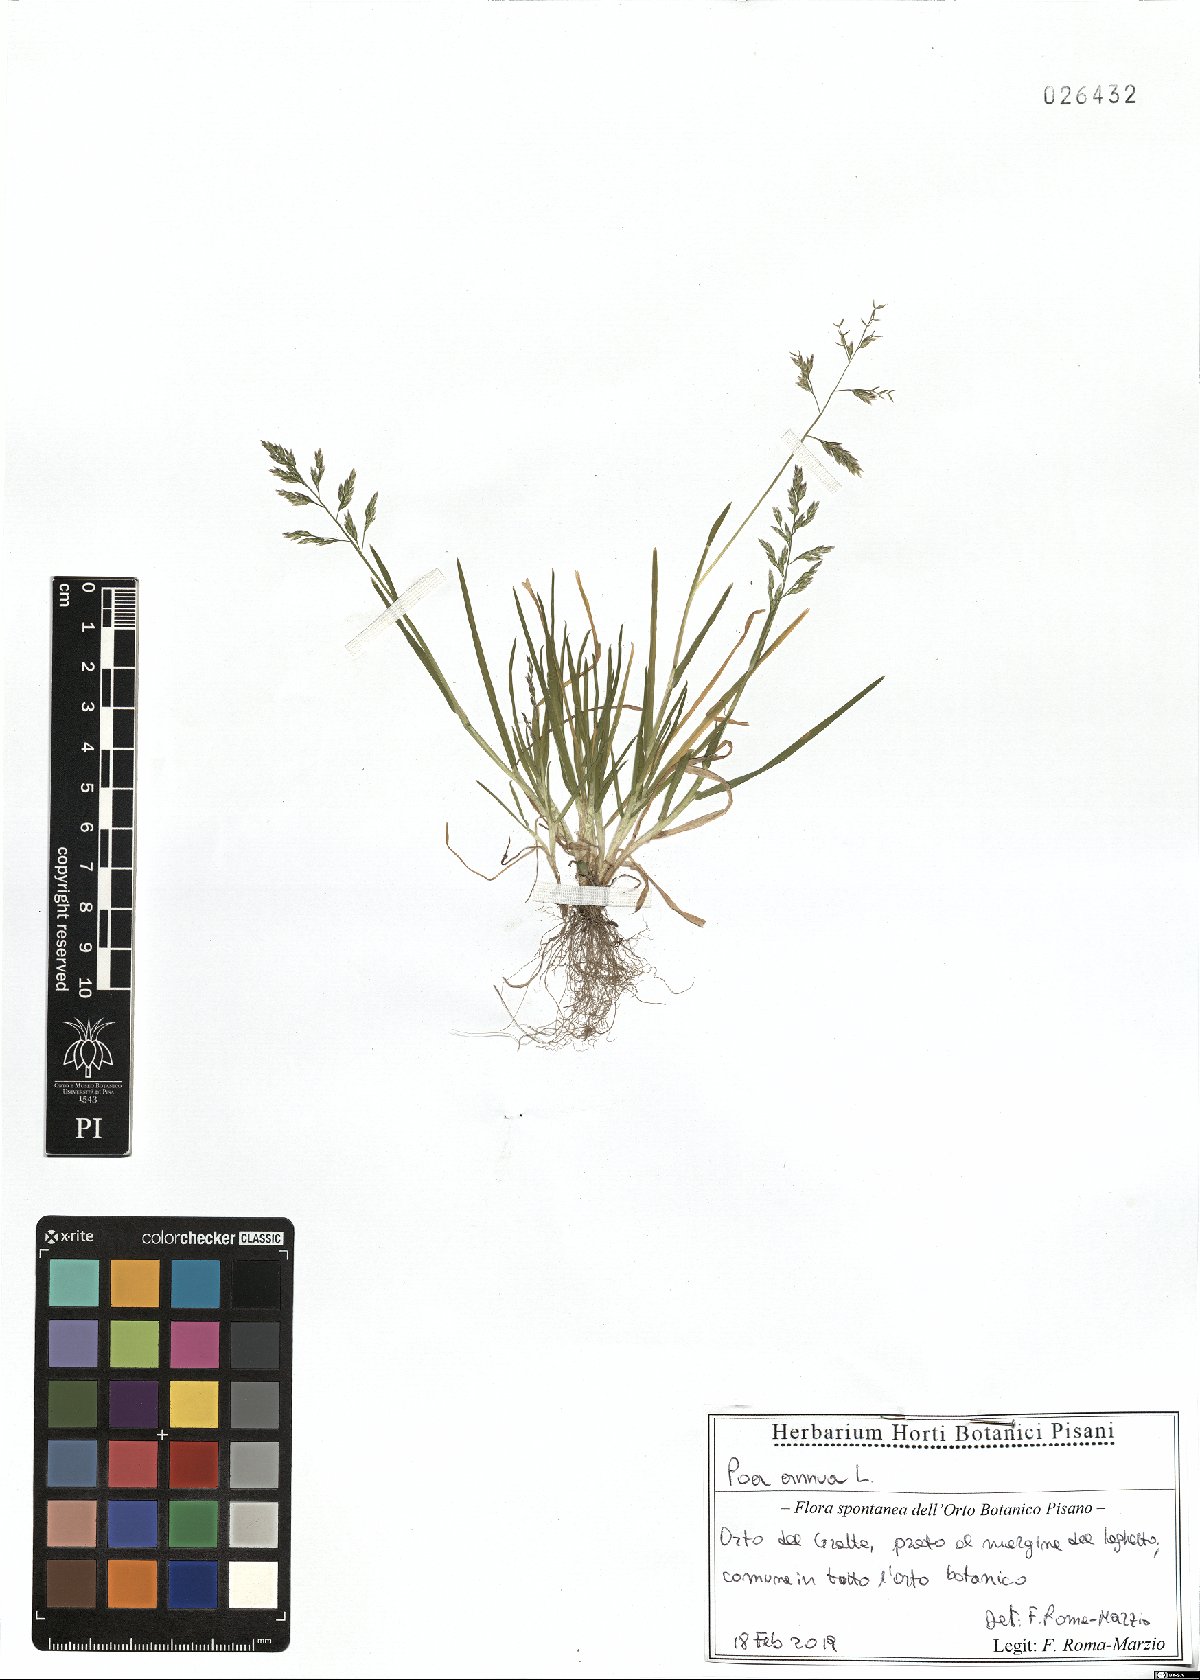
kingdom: Plantae
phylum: Tracheophyta
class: Liliopsida
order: Poales
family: Poaceae
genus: Poa
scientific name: Poa annua
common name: Annual bluegrass
